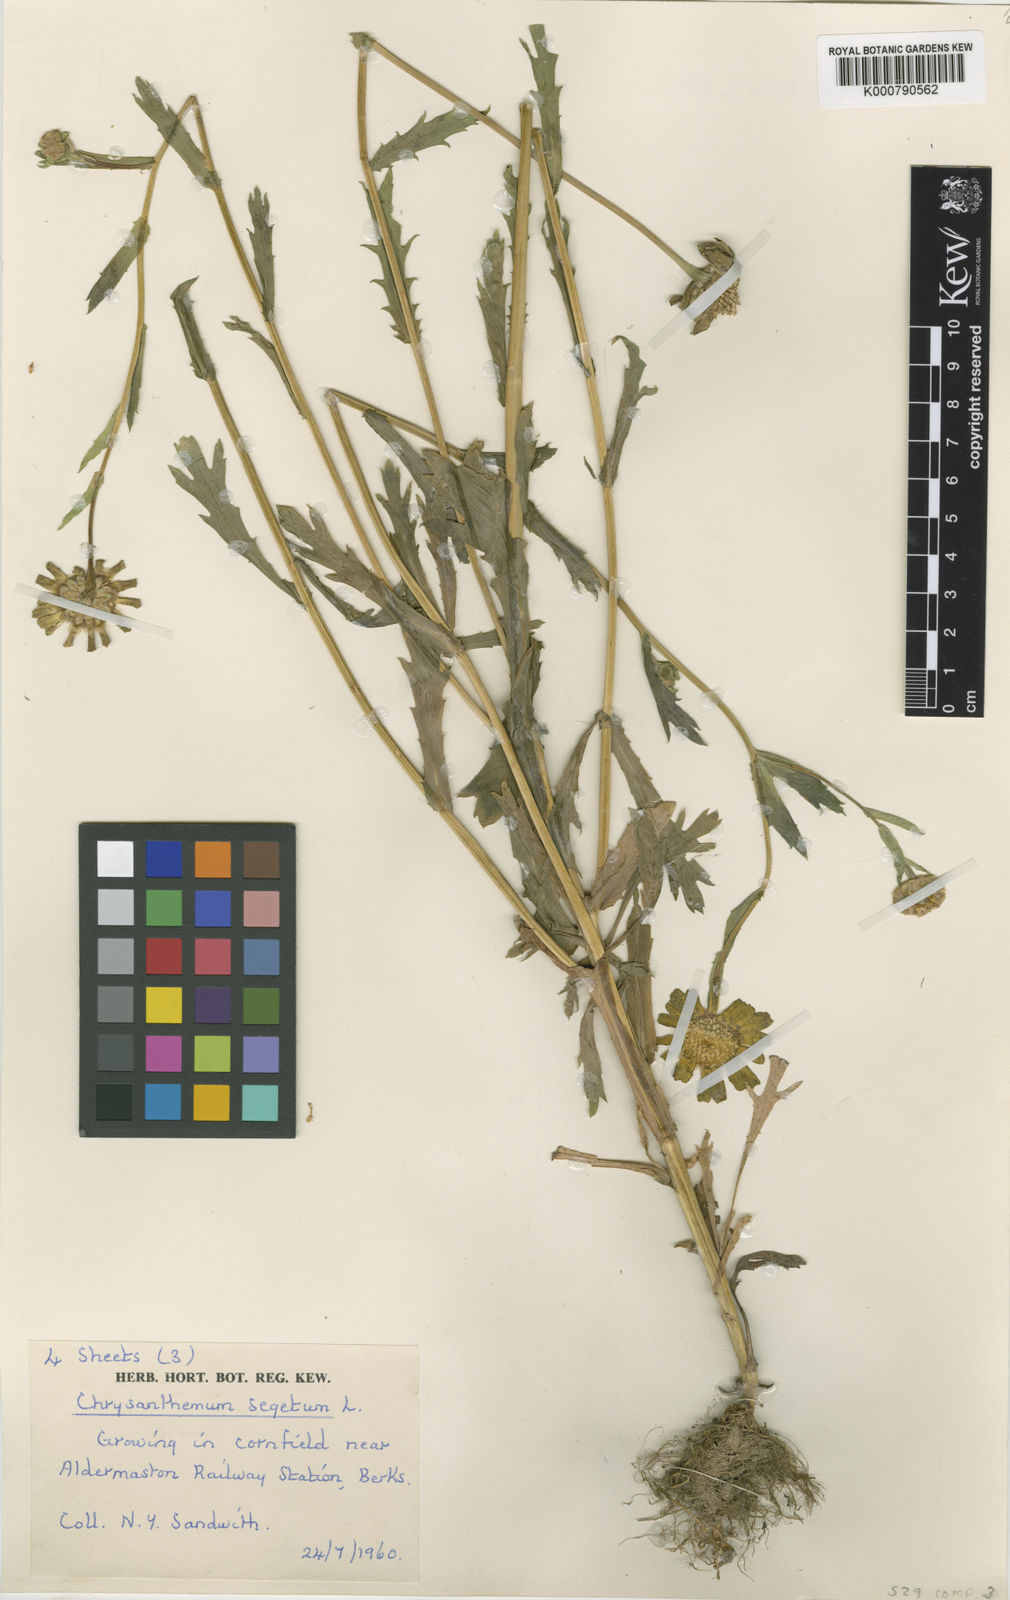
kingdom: Plantae
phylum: Tracheophyta
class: Magnoliopsida
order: Asterales
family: Asteraceae
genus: Glebionis
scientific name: Glebionis
